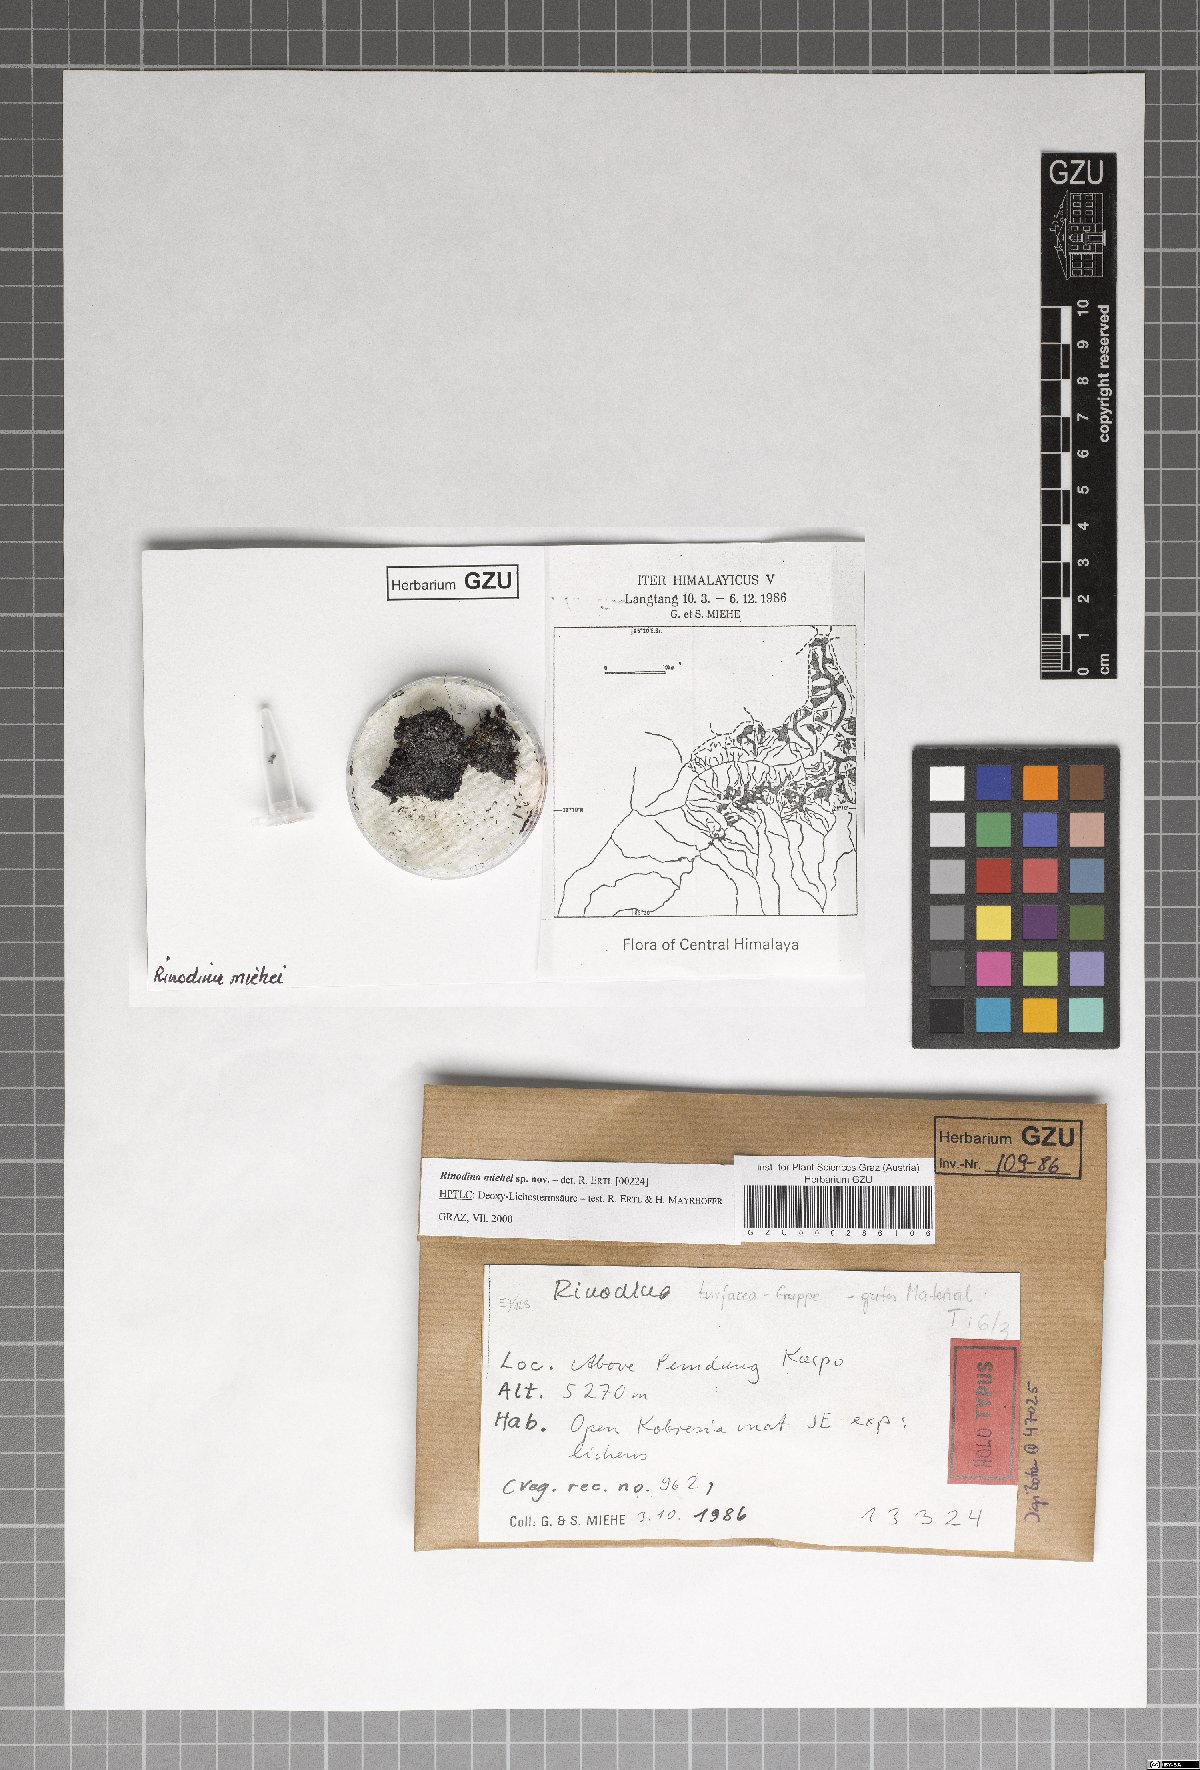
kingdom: Fungi
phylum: Ascomycota
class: Lecanoromycetes
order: Caliciales
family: Physciaceae
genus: Rinodina
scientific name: Rinodina
